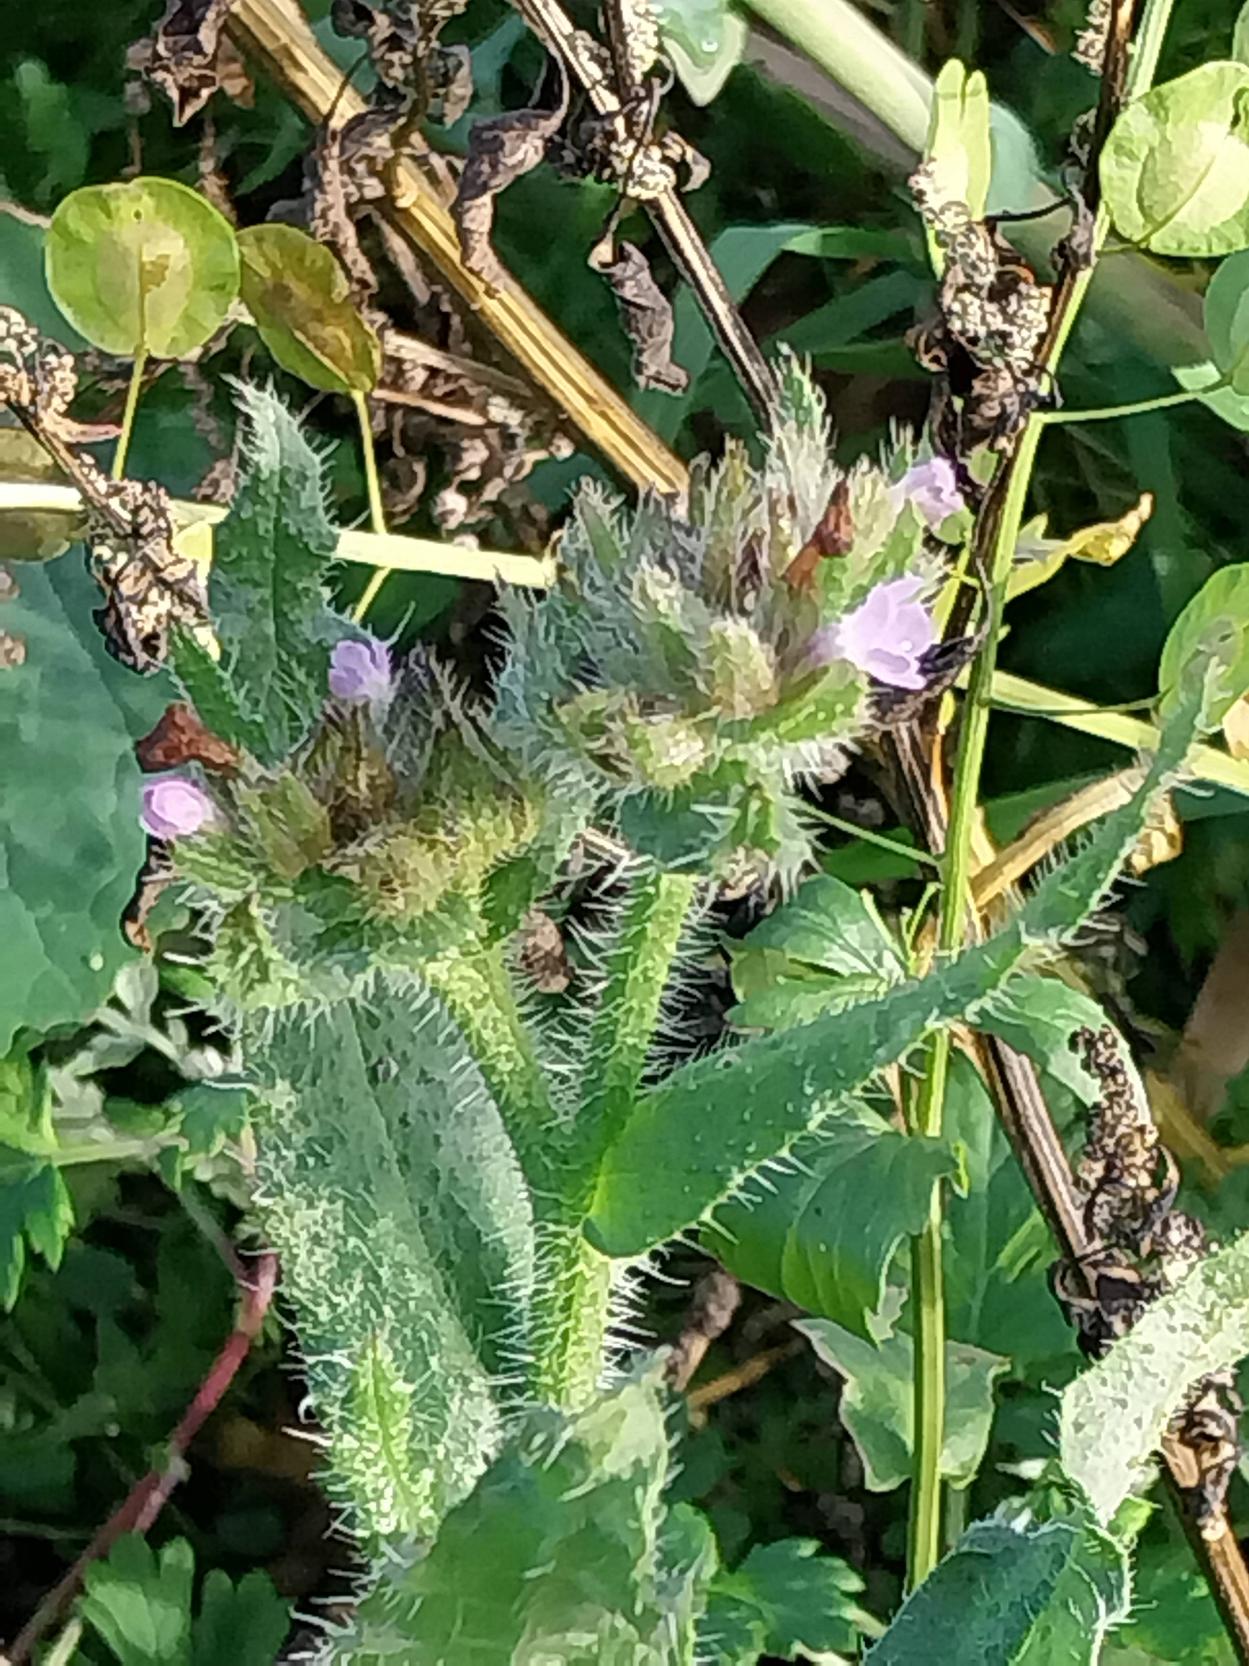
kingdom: Plantae
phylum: Tracheophyta
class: Magnoliopsida
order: Boraginales
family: Boraginaceae
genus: Lycopsis
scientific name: Lycopsis arvensis
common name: Krumhals
